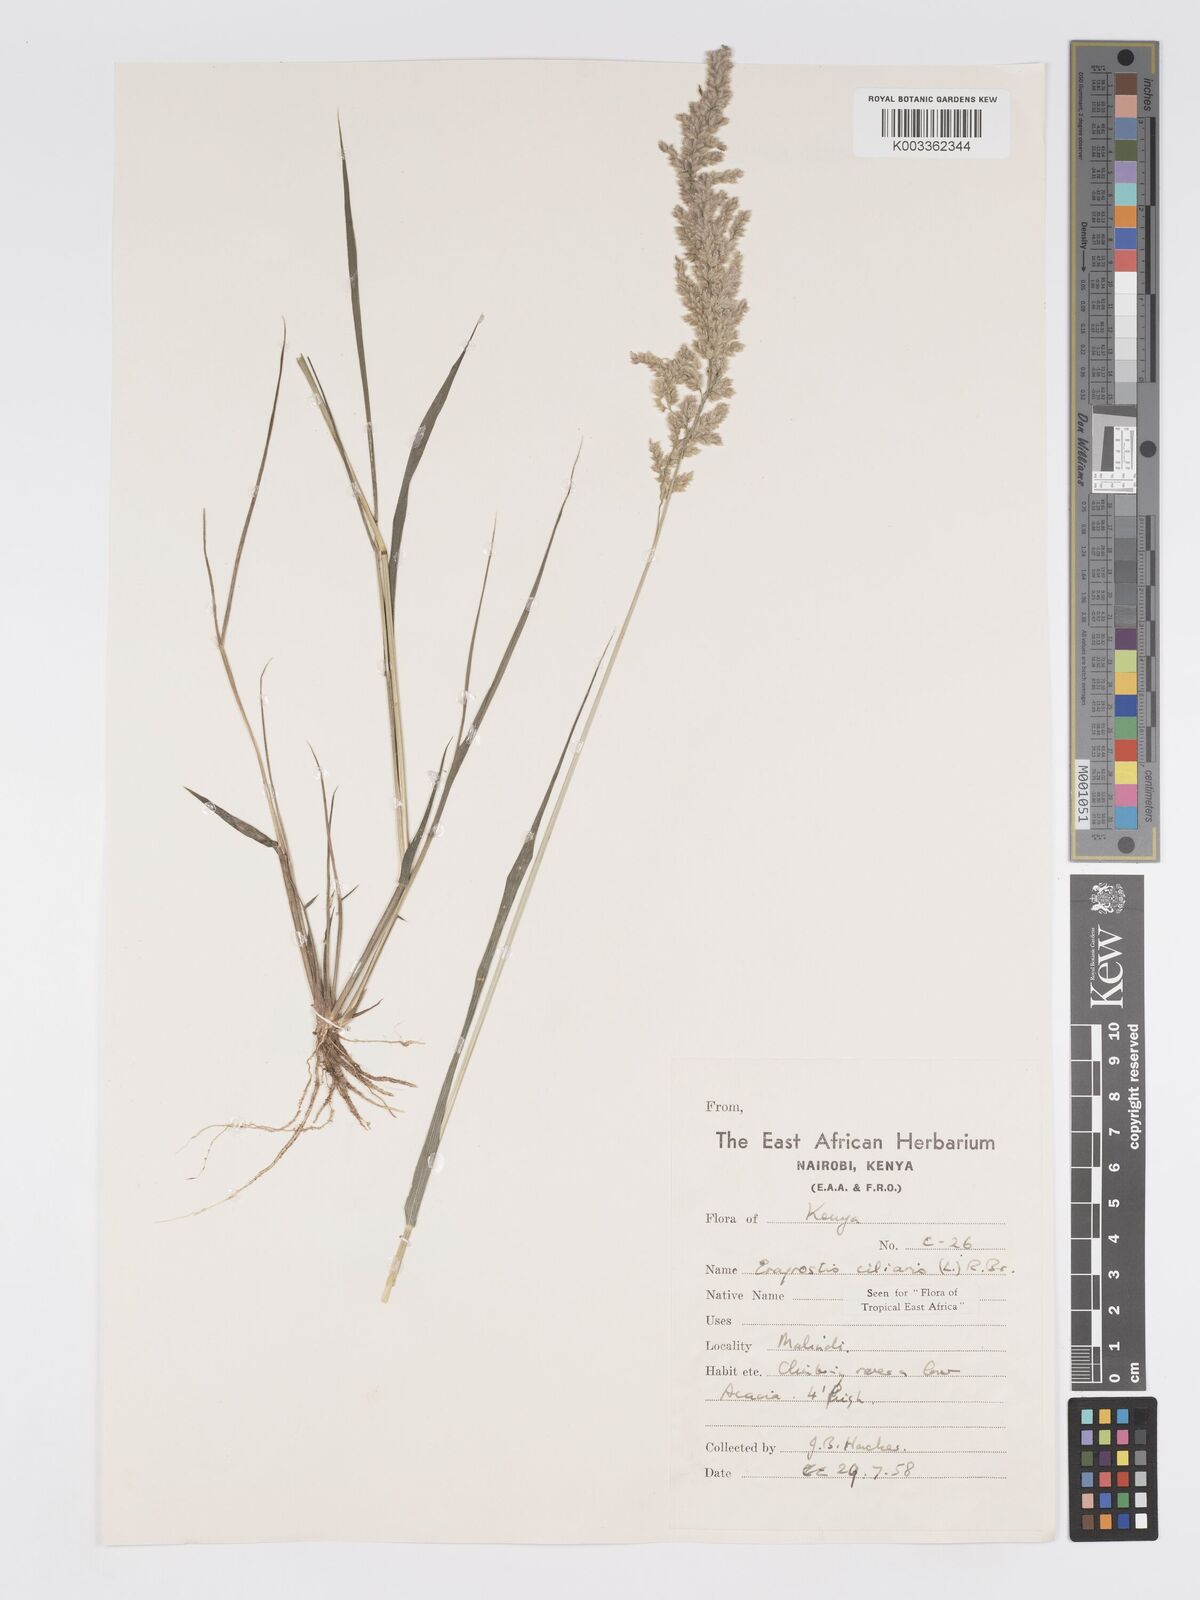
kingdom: Plantae
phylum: Tracheophyta
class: Liliopsida
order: Poales
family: Poaceae
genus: Eragrostis
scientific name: Eragrostis ciliaris
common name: Gophertail lovegrass
